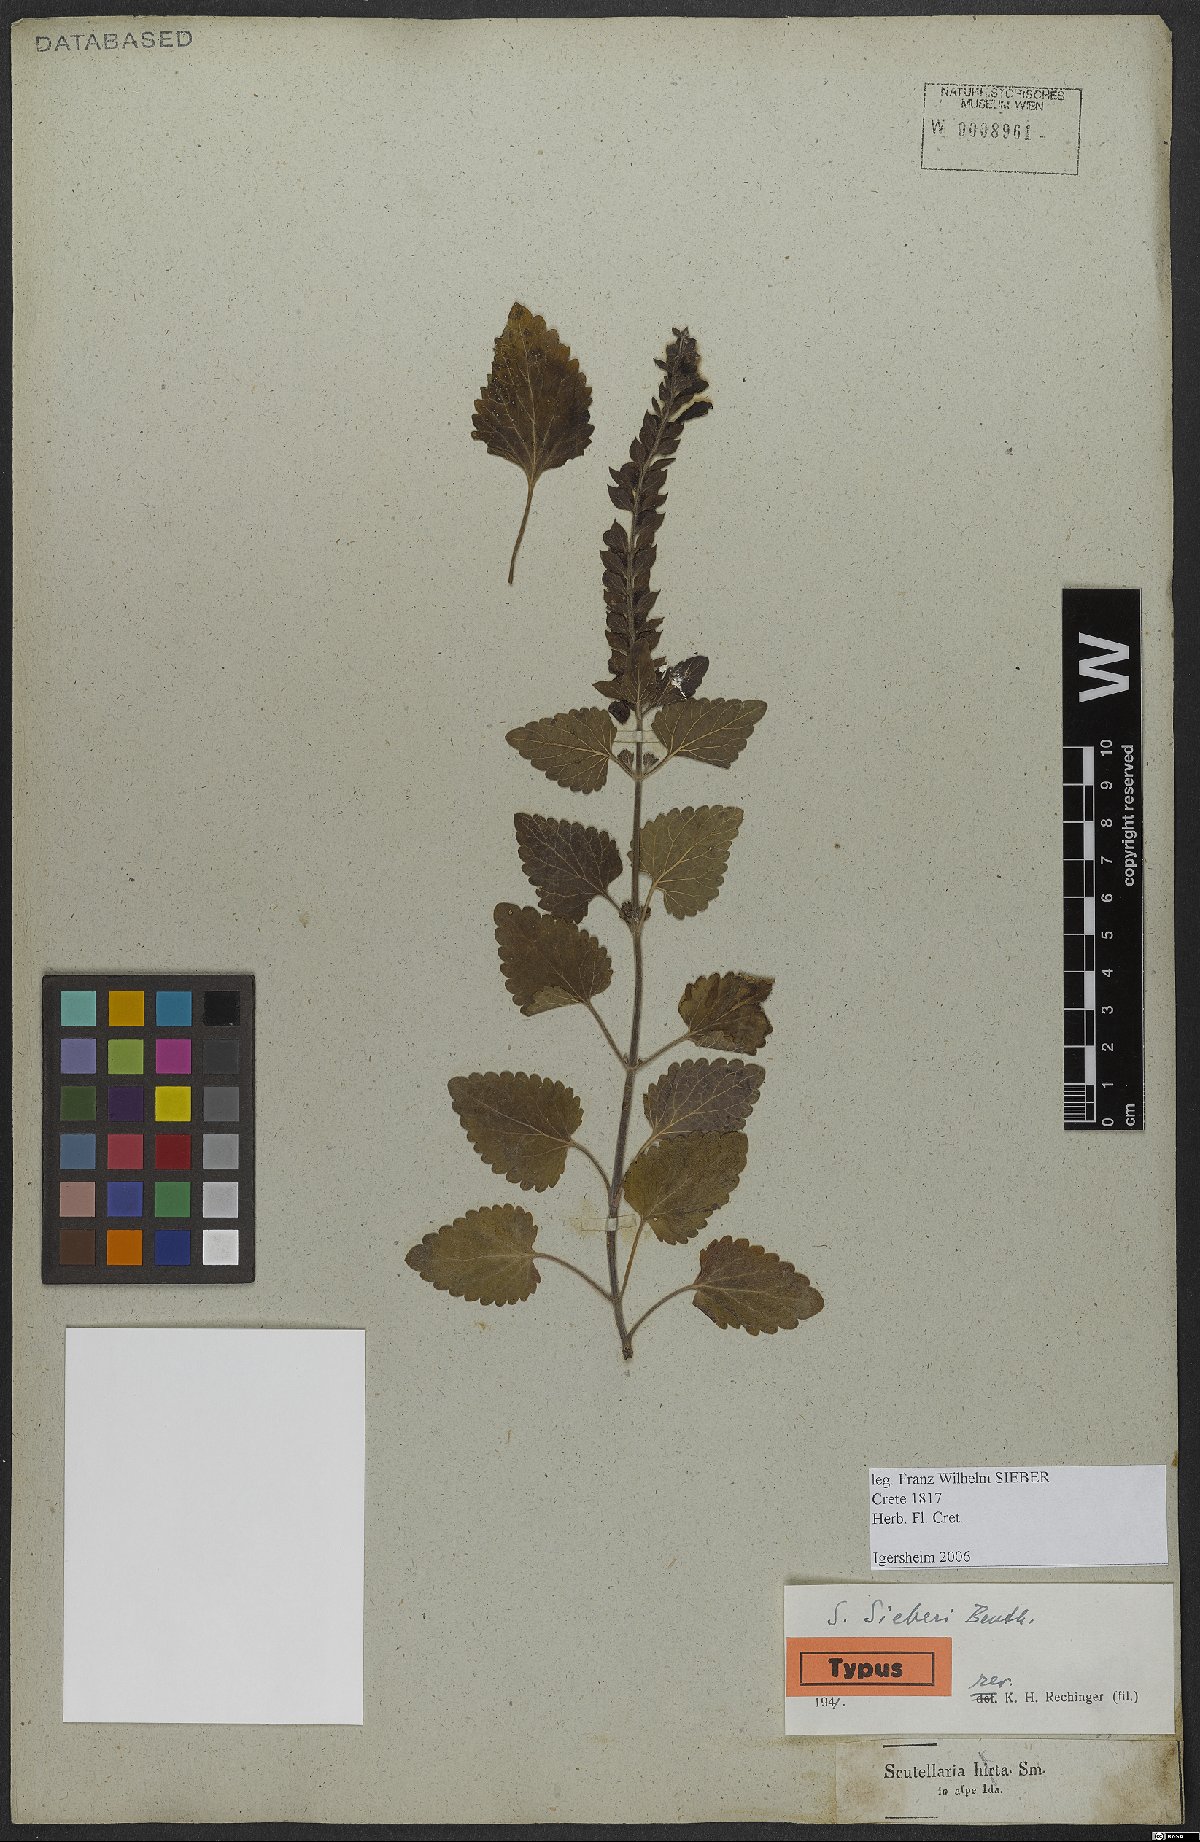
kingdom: Plantae
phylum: Tracheophyta
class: Magnoliopsida
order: Lamiales
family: Lamiaceae
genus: Scutellaria
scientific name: Scutellaria sieberi
